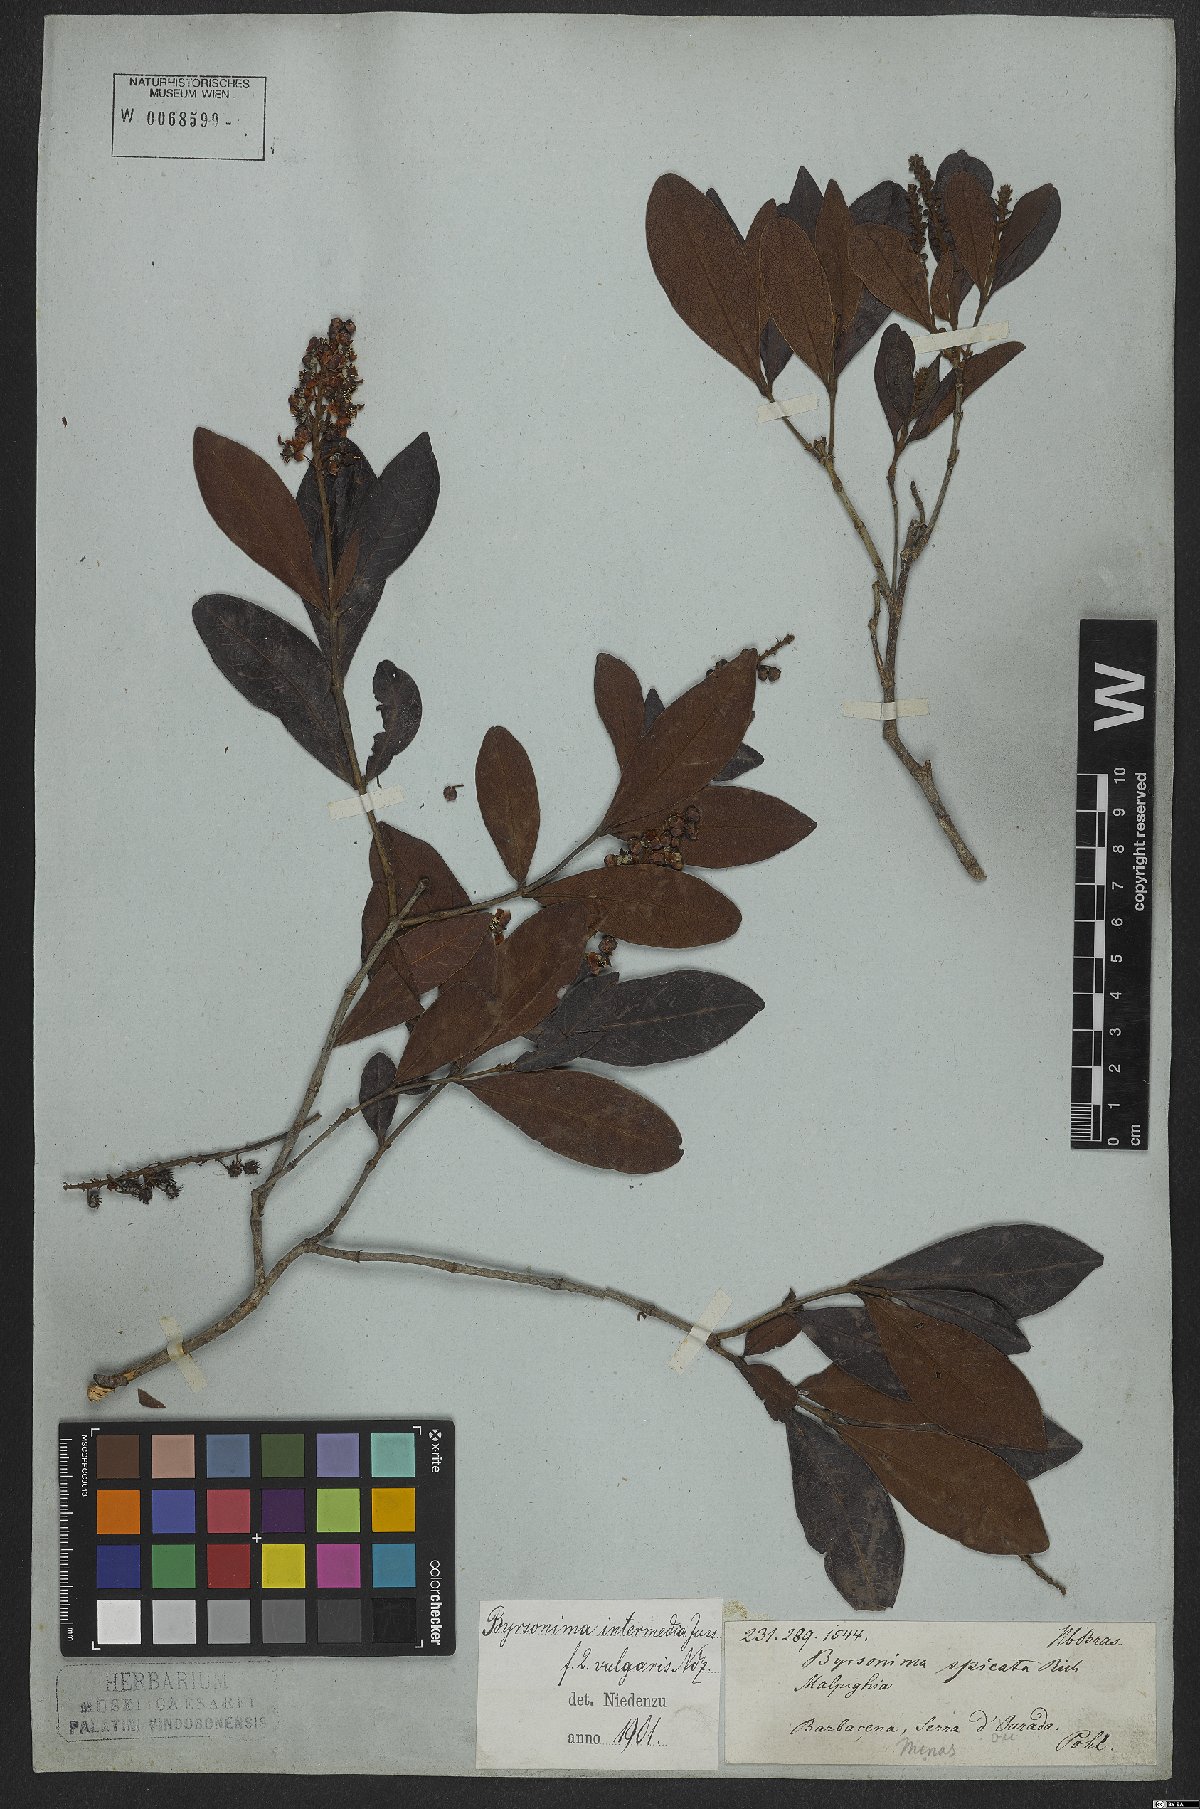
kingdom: Plantae
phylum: Tracheophyta
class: Magnoliopsida
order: Malpighiales
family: Malpighiaceae
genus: Byrsonima
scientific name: Byrsonima intermedia
